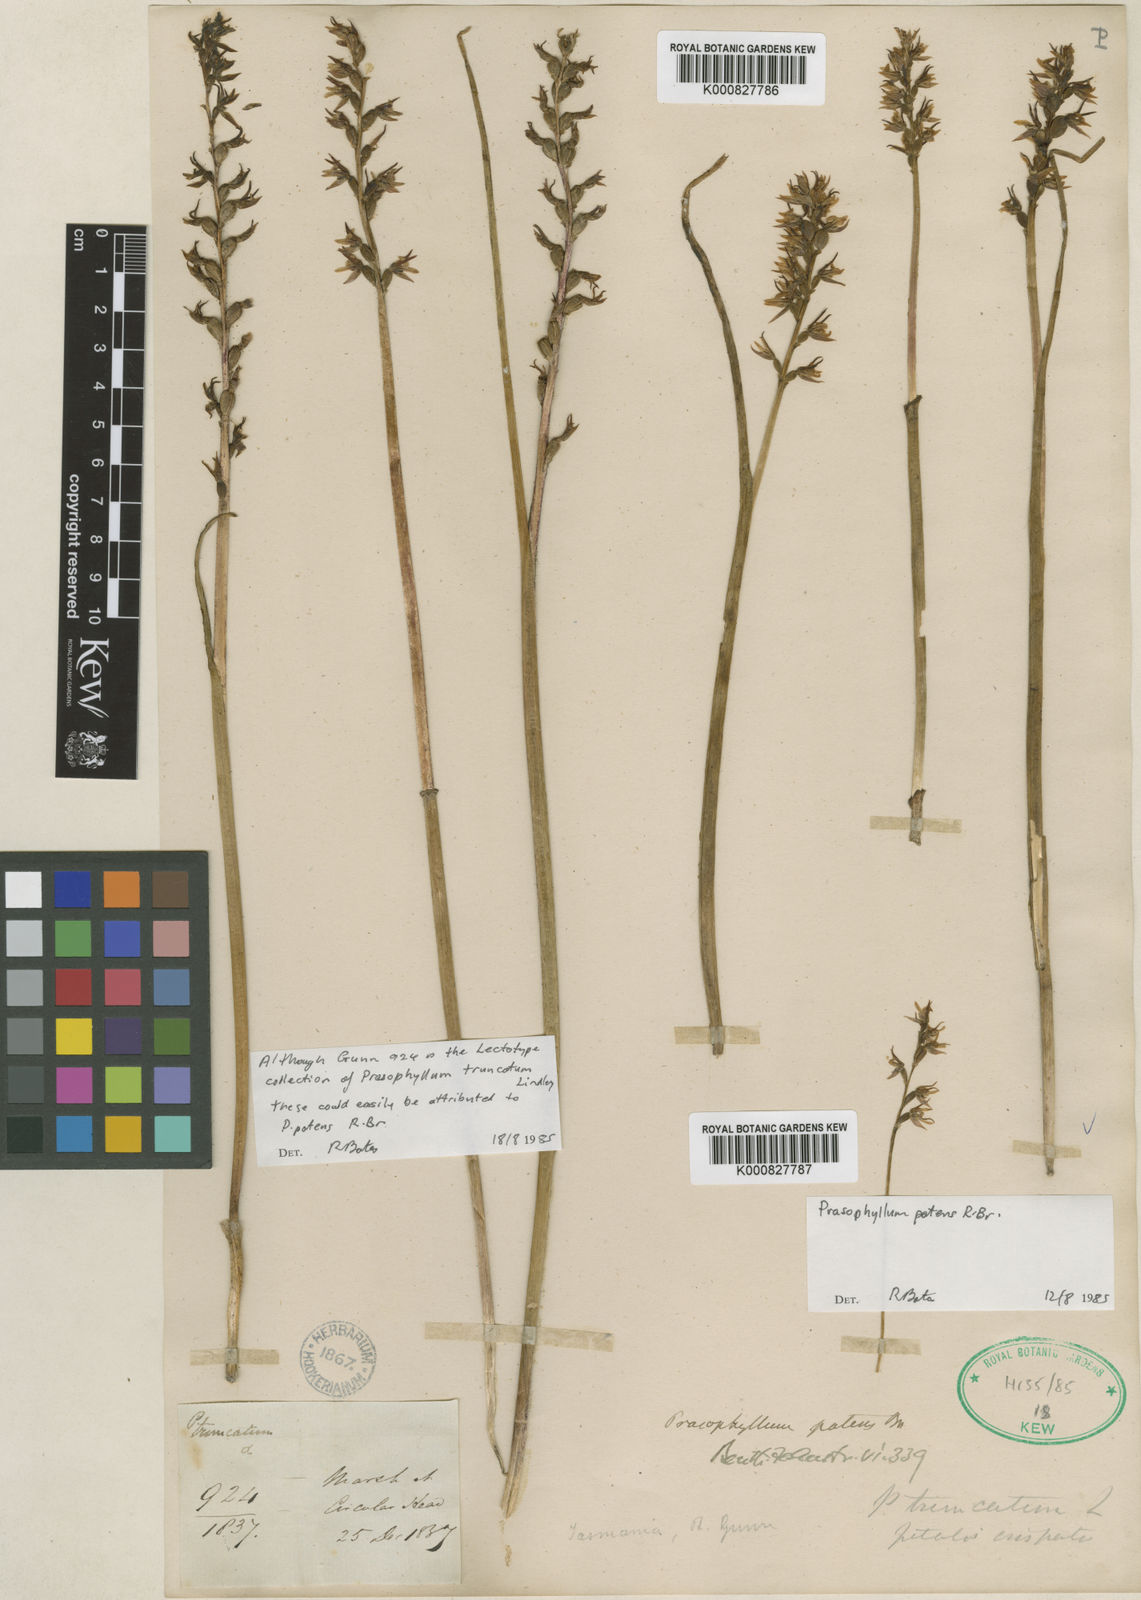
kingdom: Plantae
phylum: Tracheophyta
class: Liliopsida
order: Asparagales
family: Orchidaceae
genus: Prasophyllum
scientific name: Prasophyllum patens
